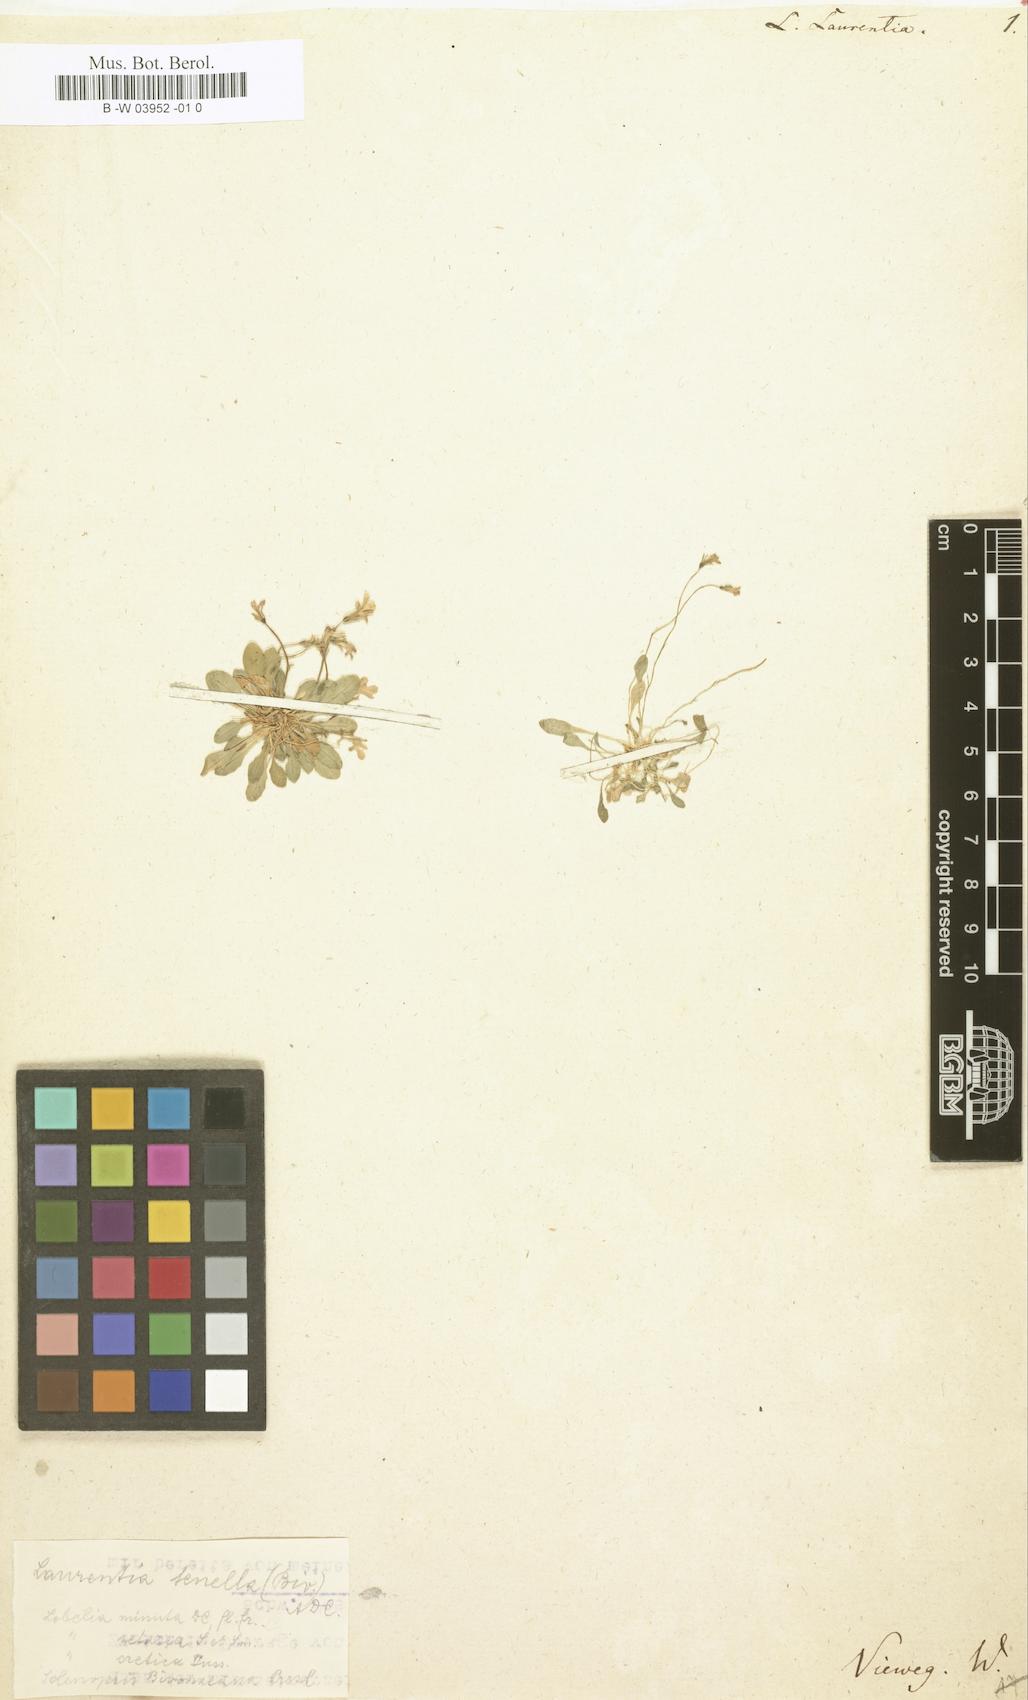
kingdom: Plantae
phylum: Tracheophyta
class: Magnoliopsida
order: Asterales
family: Campanulaceae
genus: Solenopsis
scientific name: Solenopsis laurentia
